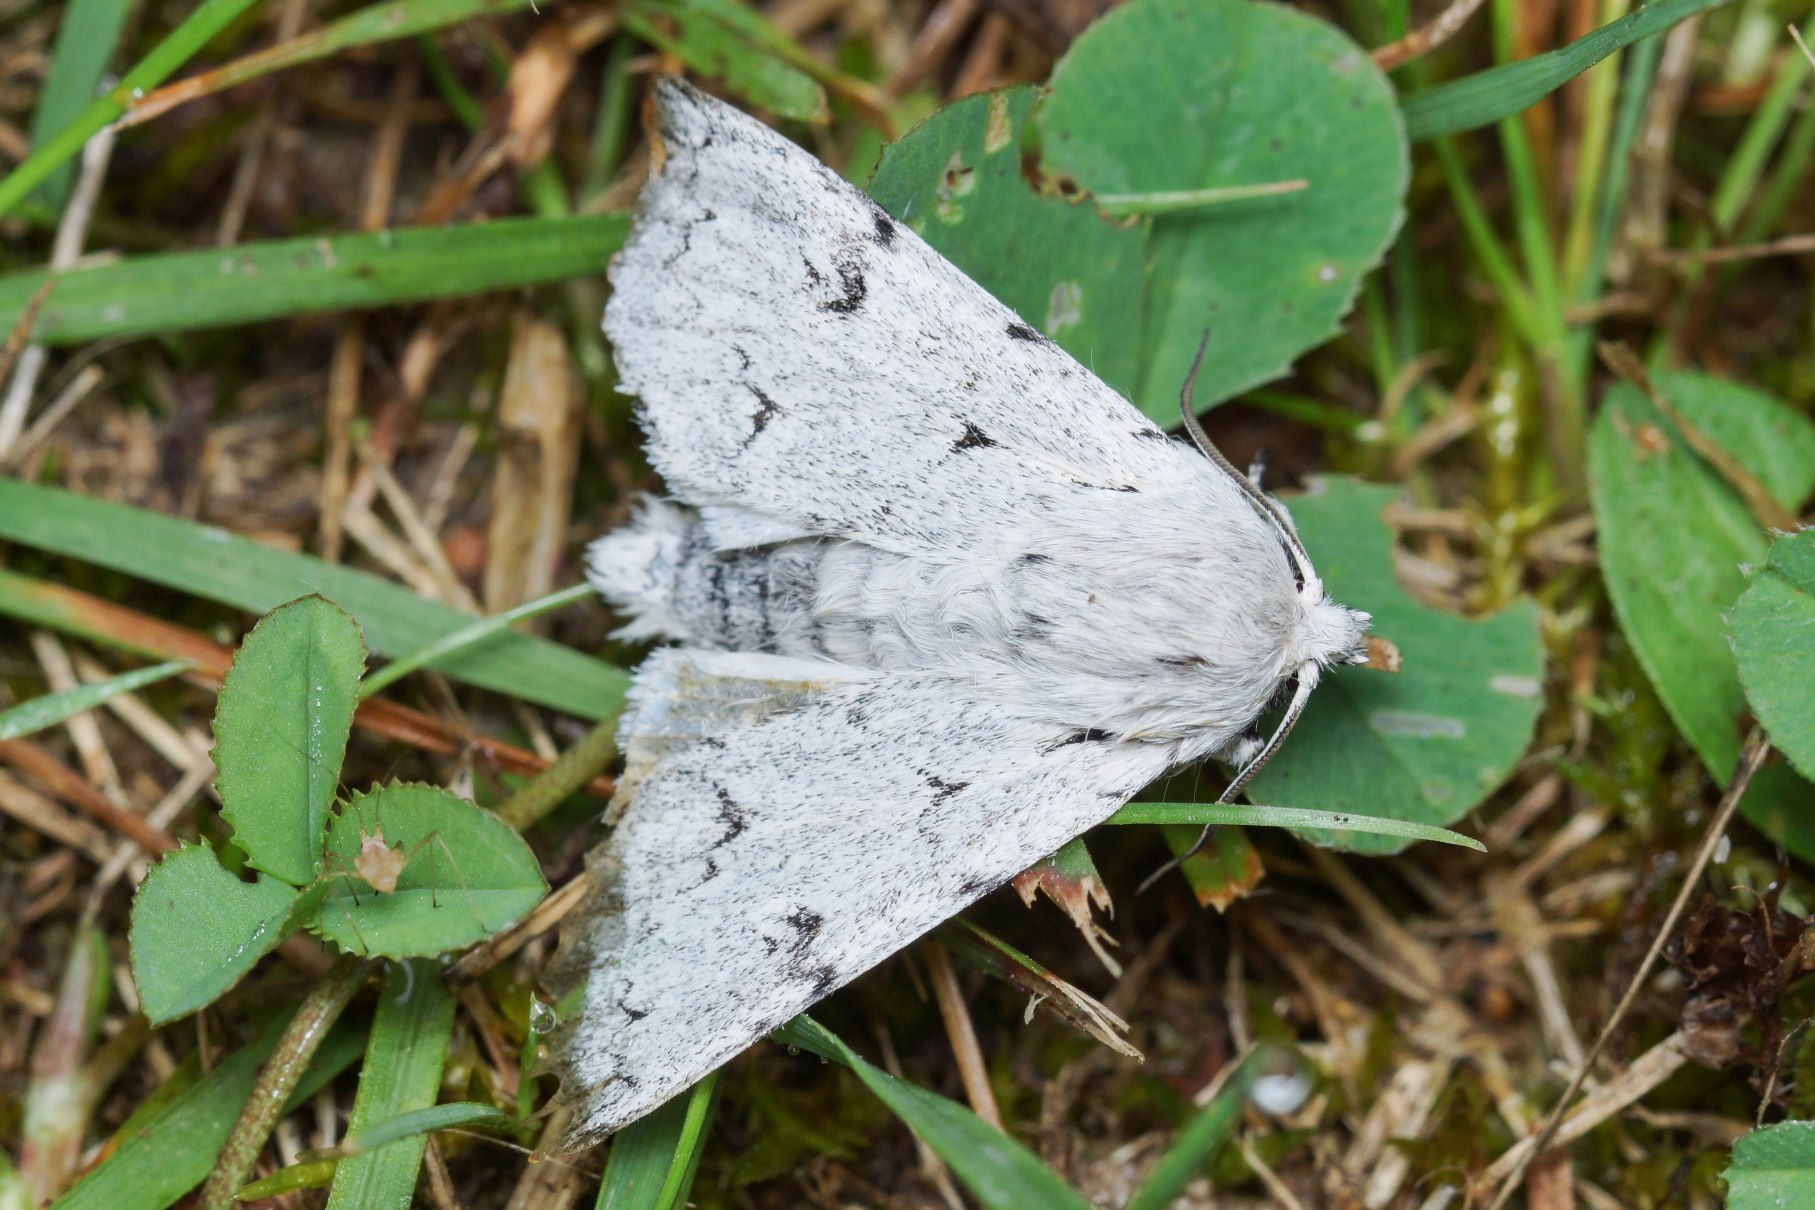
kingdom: Animalia
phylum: Arthropoda
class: Insecta
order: Lepidoptera
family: Noctuidae
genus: Acronicta
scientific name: Acronicta leporina
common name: Snehare
